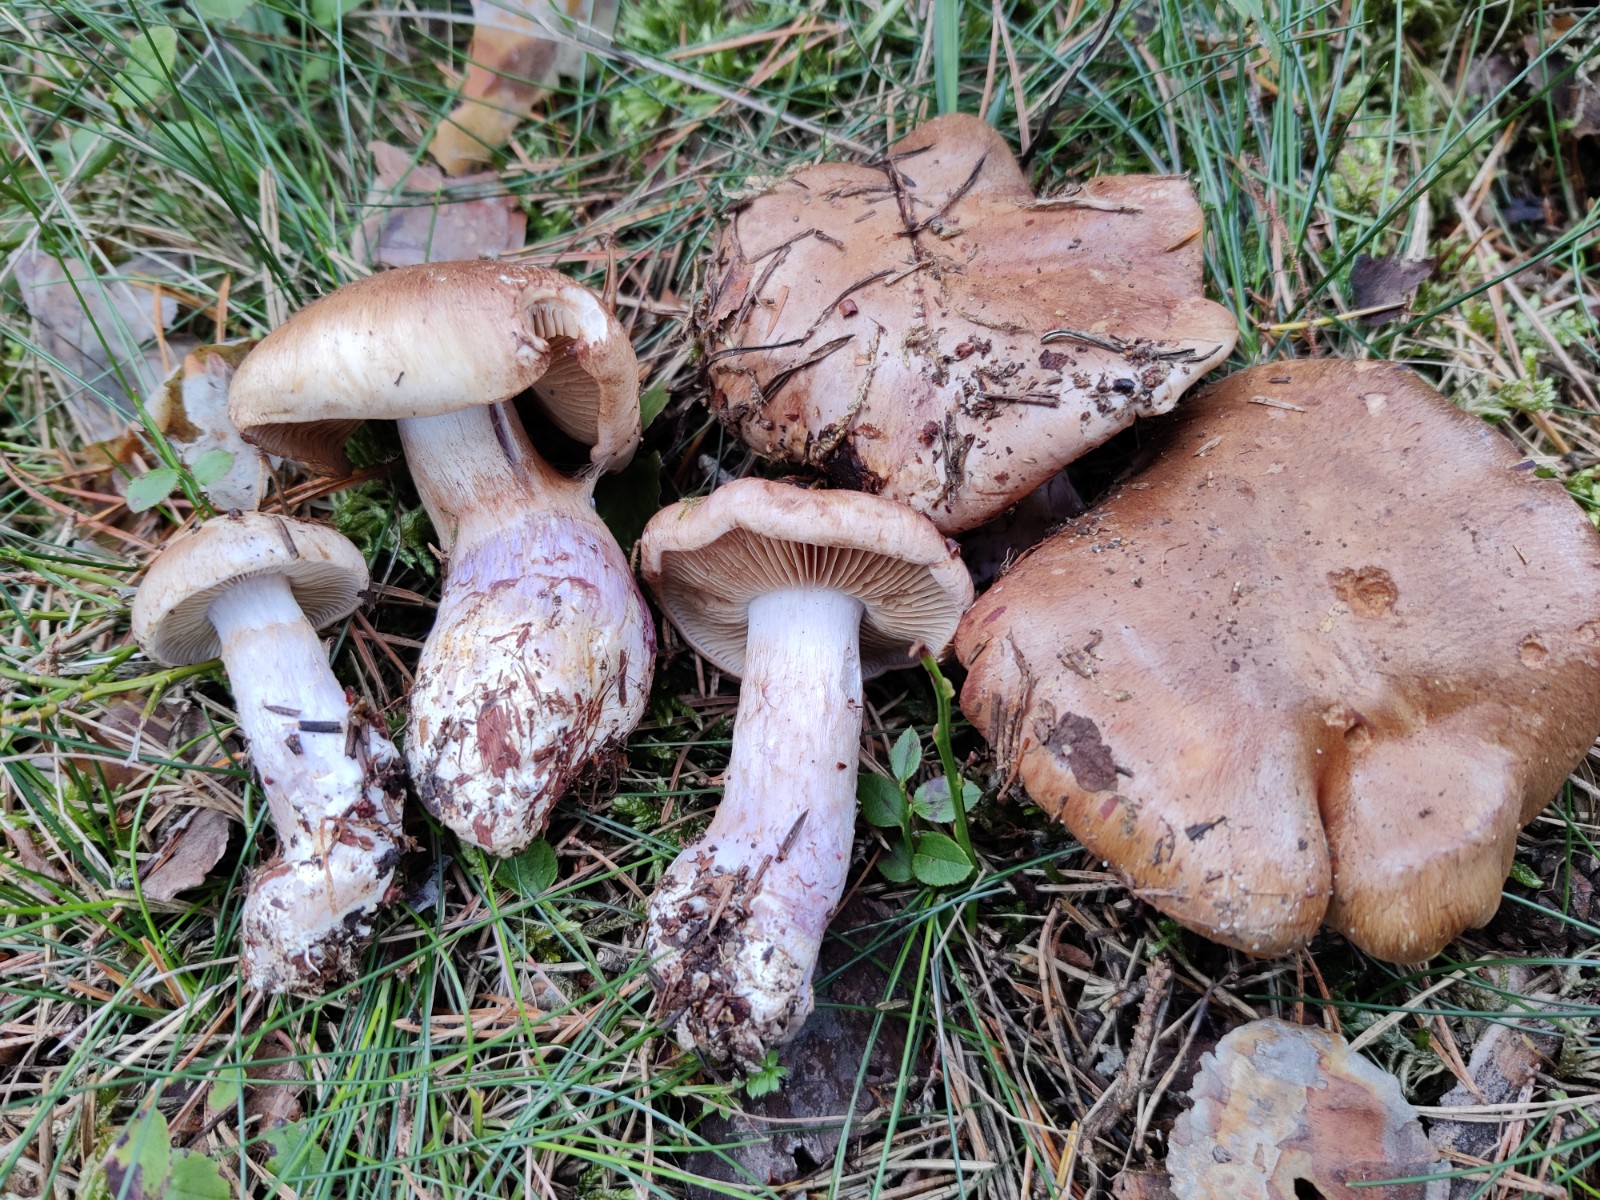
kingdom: Fungi
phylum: Basidiomycota
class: Agaricomycetes
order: Agaricales
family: Cortinariaceae
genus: Phlegmacium
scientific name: Phlegmacium violaceomaculatum
